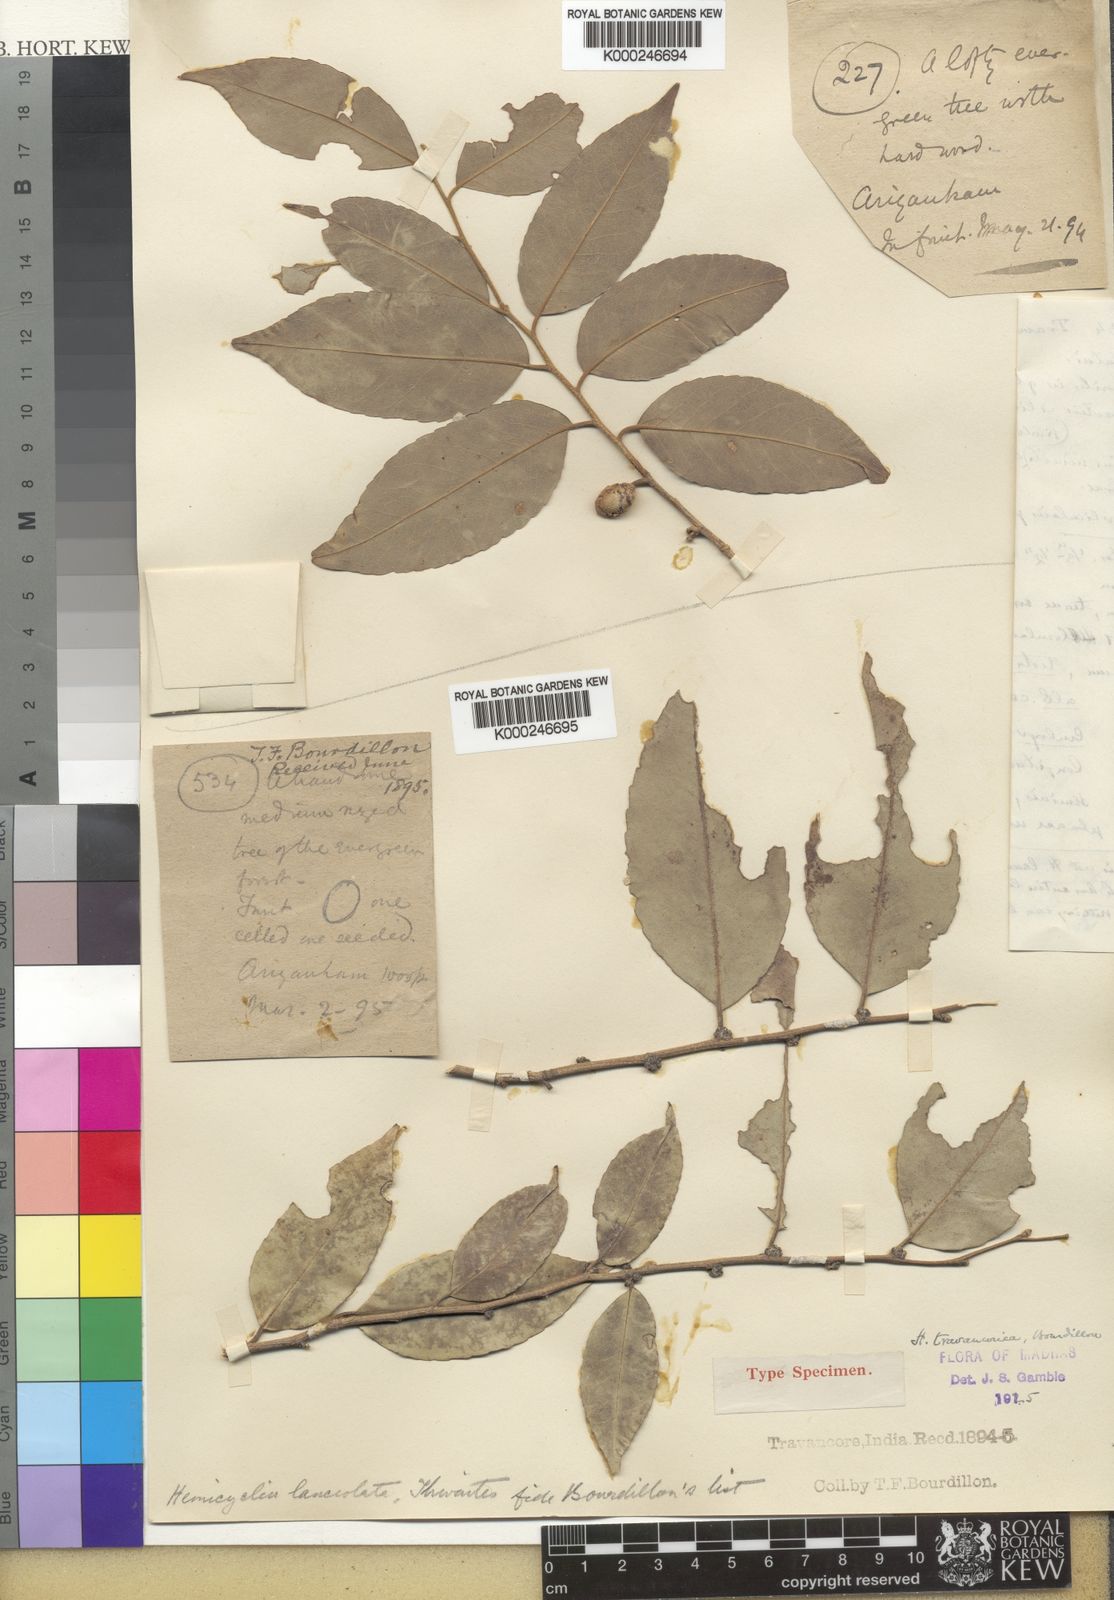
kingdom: Plantae
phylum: Tracheophyta
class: Magnoliopsida
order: Malpighiales
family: Putranjivaceae
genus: Drypetes
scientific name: Drypetes gardneri
